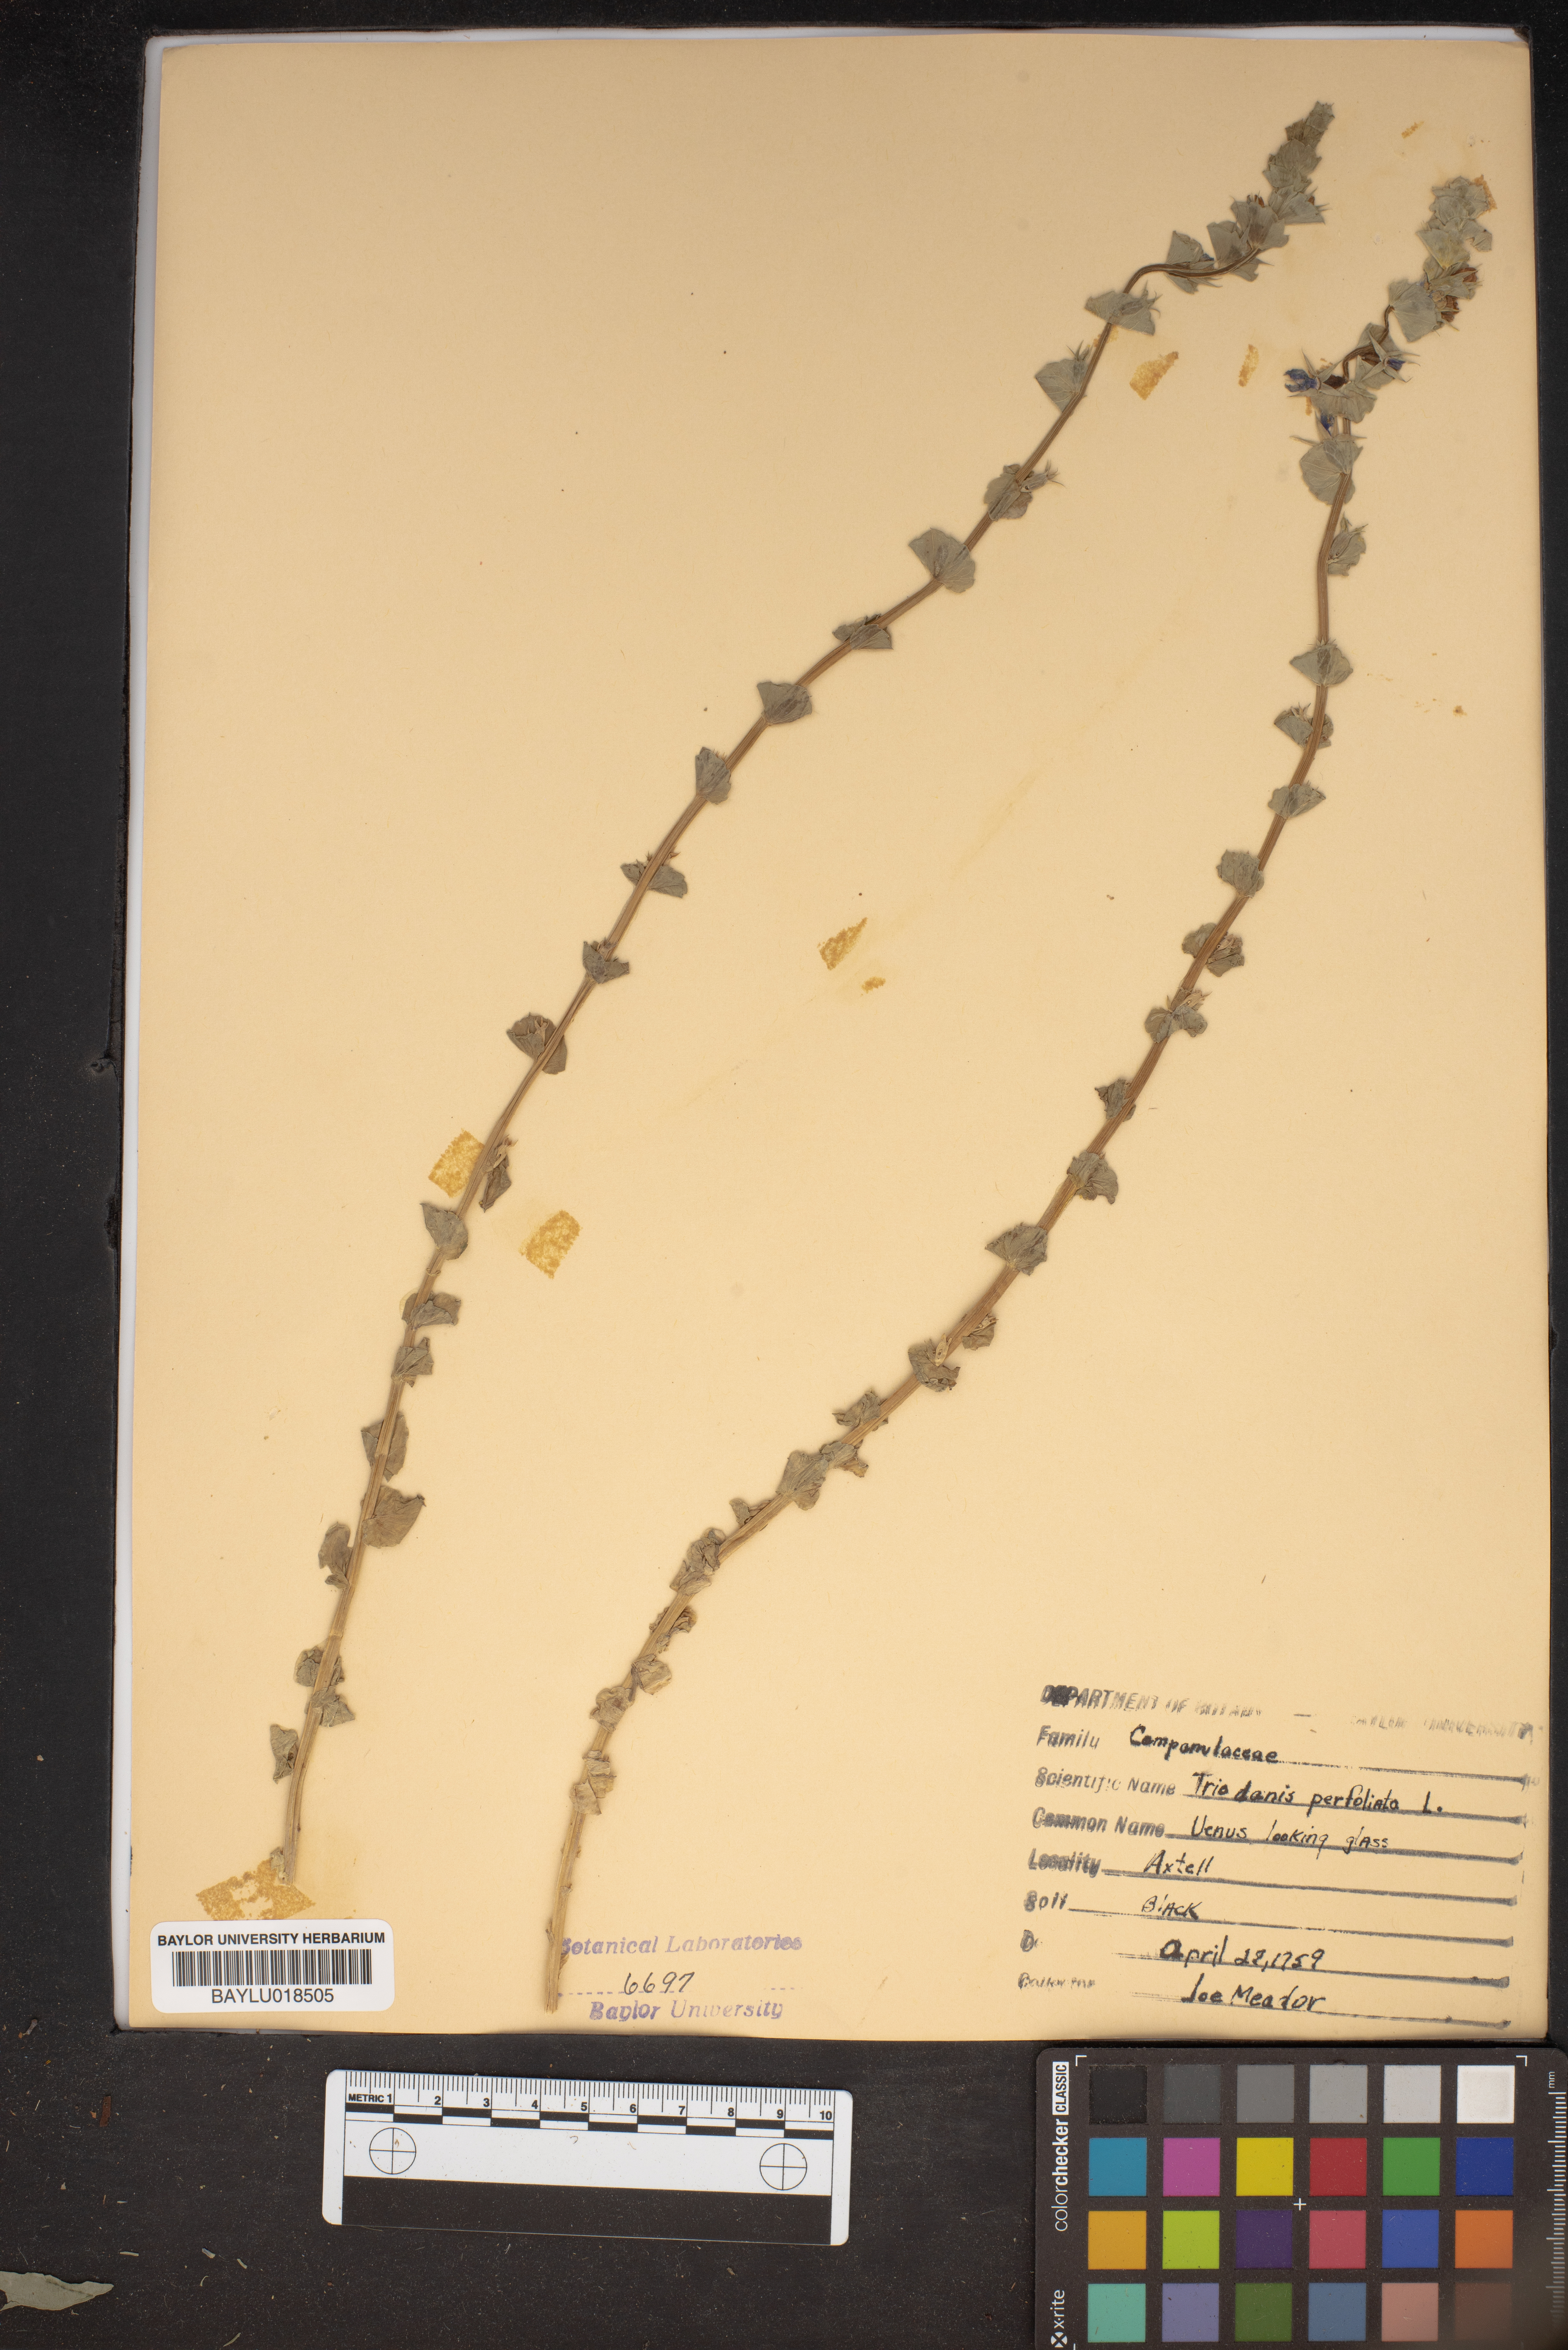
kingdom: Plantae
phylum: Tracheophyta
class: Magnoliopsida
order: Asterales
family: Campanulaceae
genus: Triodanis
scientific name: Triodanis perfoliata
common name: Clasping venus' looking-glass
